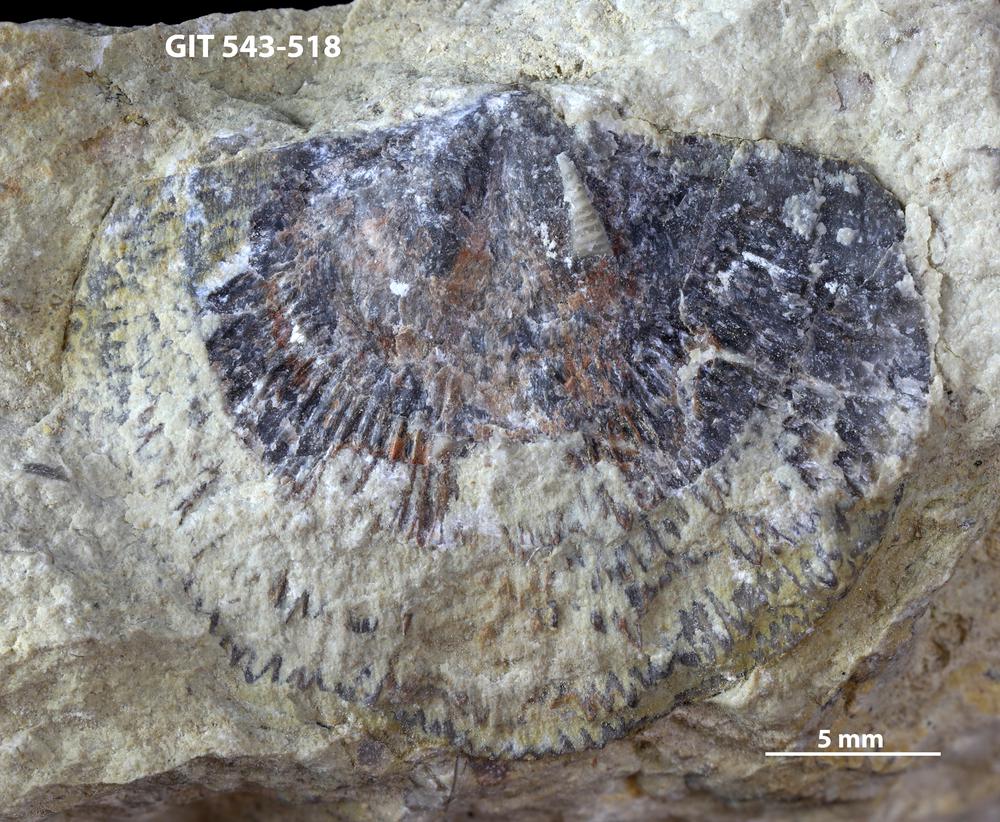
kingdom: Animalia
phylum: Brachiopoda
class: Rhynchonellata
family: Clitambonitidae
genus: Clitambonites
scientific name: Clitambonites
